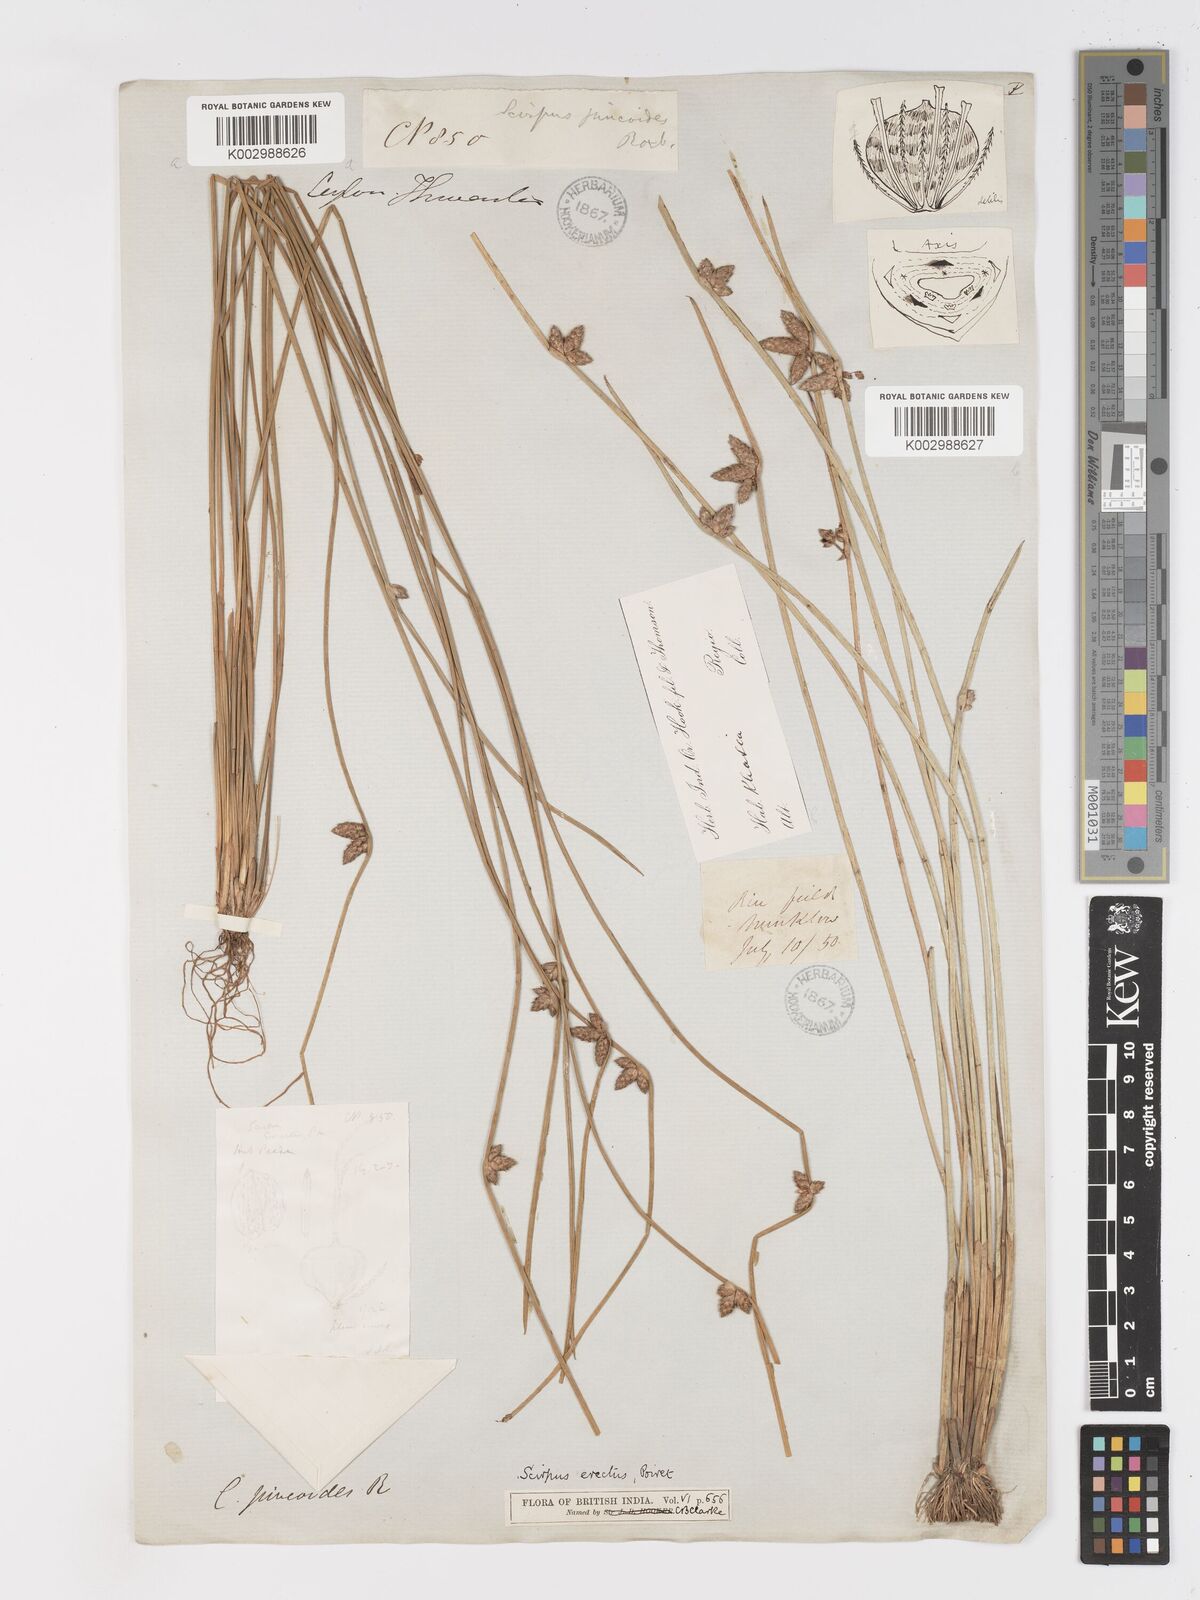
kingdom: Plantae
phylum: Tracheophyta
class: Liliopsida
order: Poales
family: Cyperaceae
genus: Schoenoplectiella
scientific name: Schoenoplectiella juncoides
